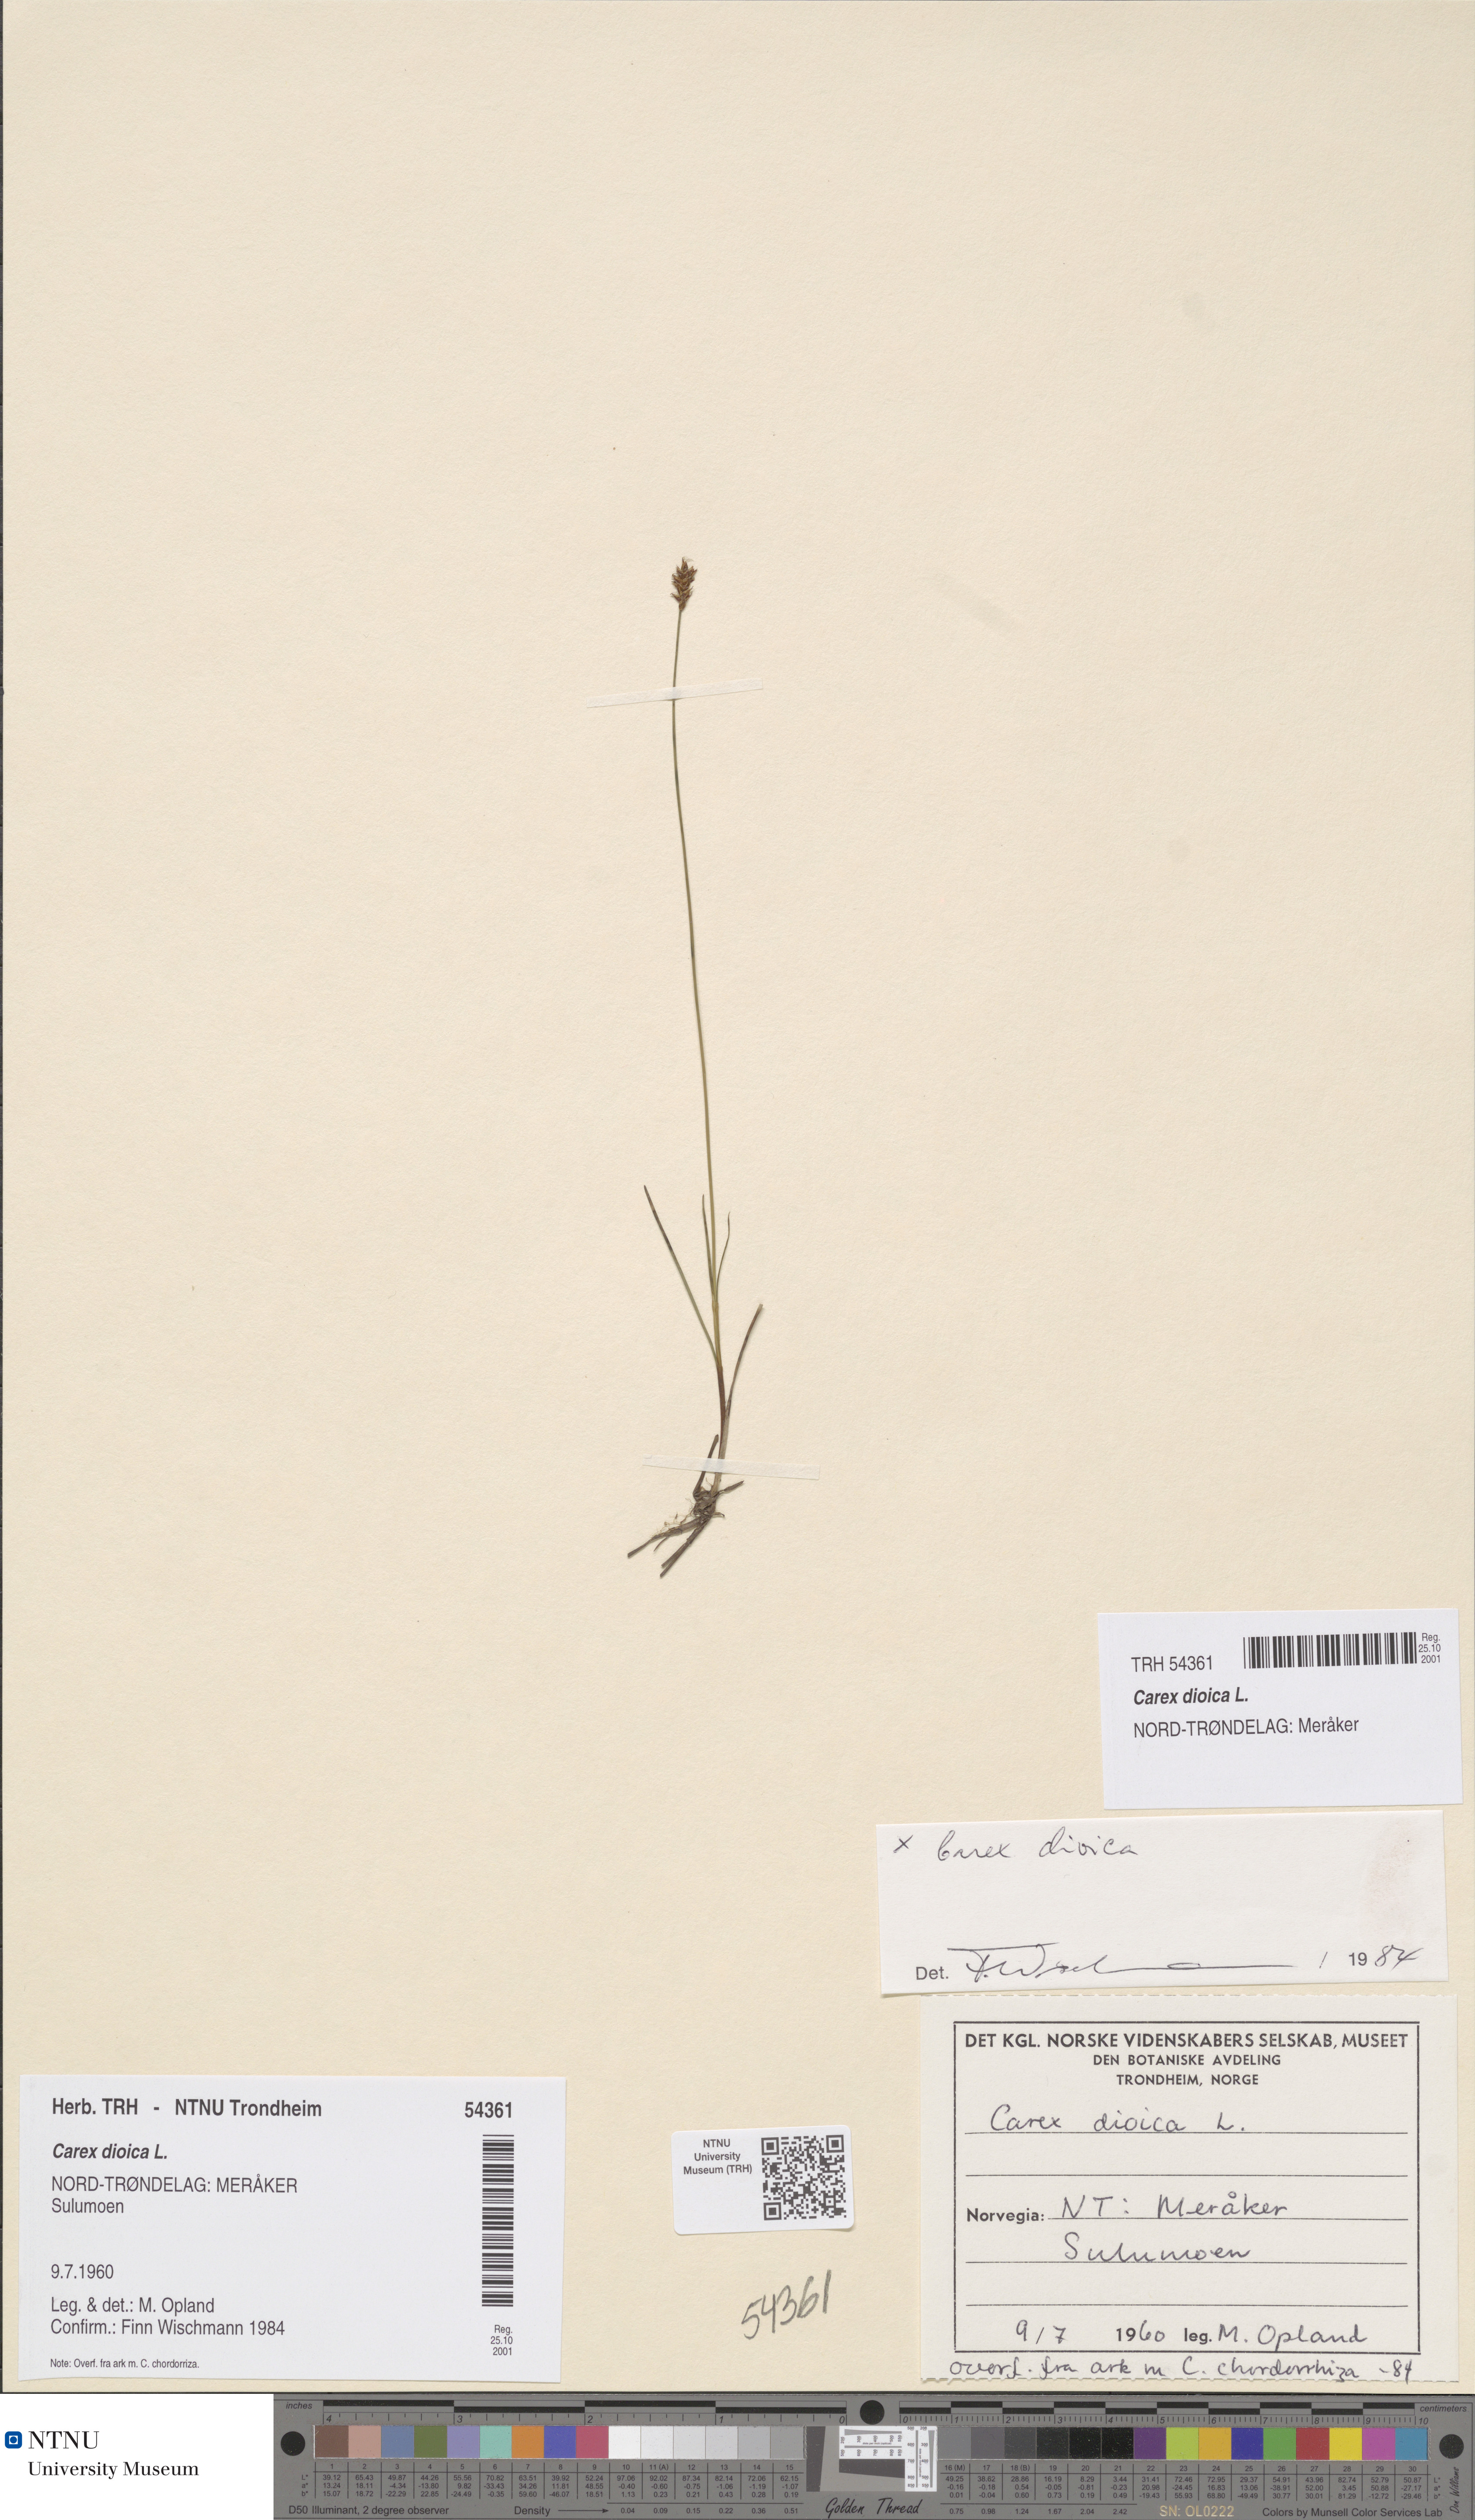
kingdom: Plantae
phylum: Tracheophyta
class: Liliopsida
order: Poales
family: Cyperaceae
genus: Carex
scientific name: Carex dioica
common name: Dioecious sedge
